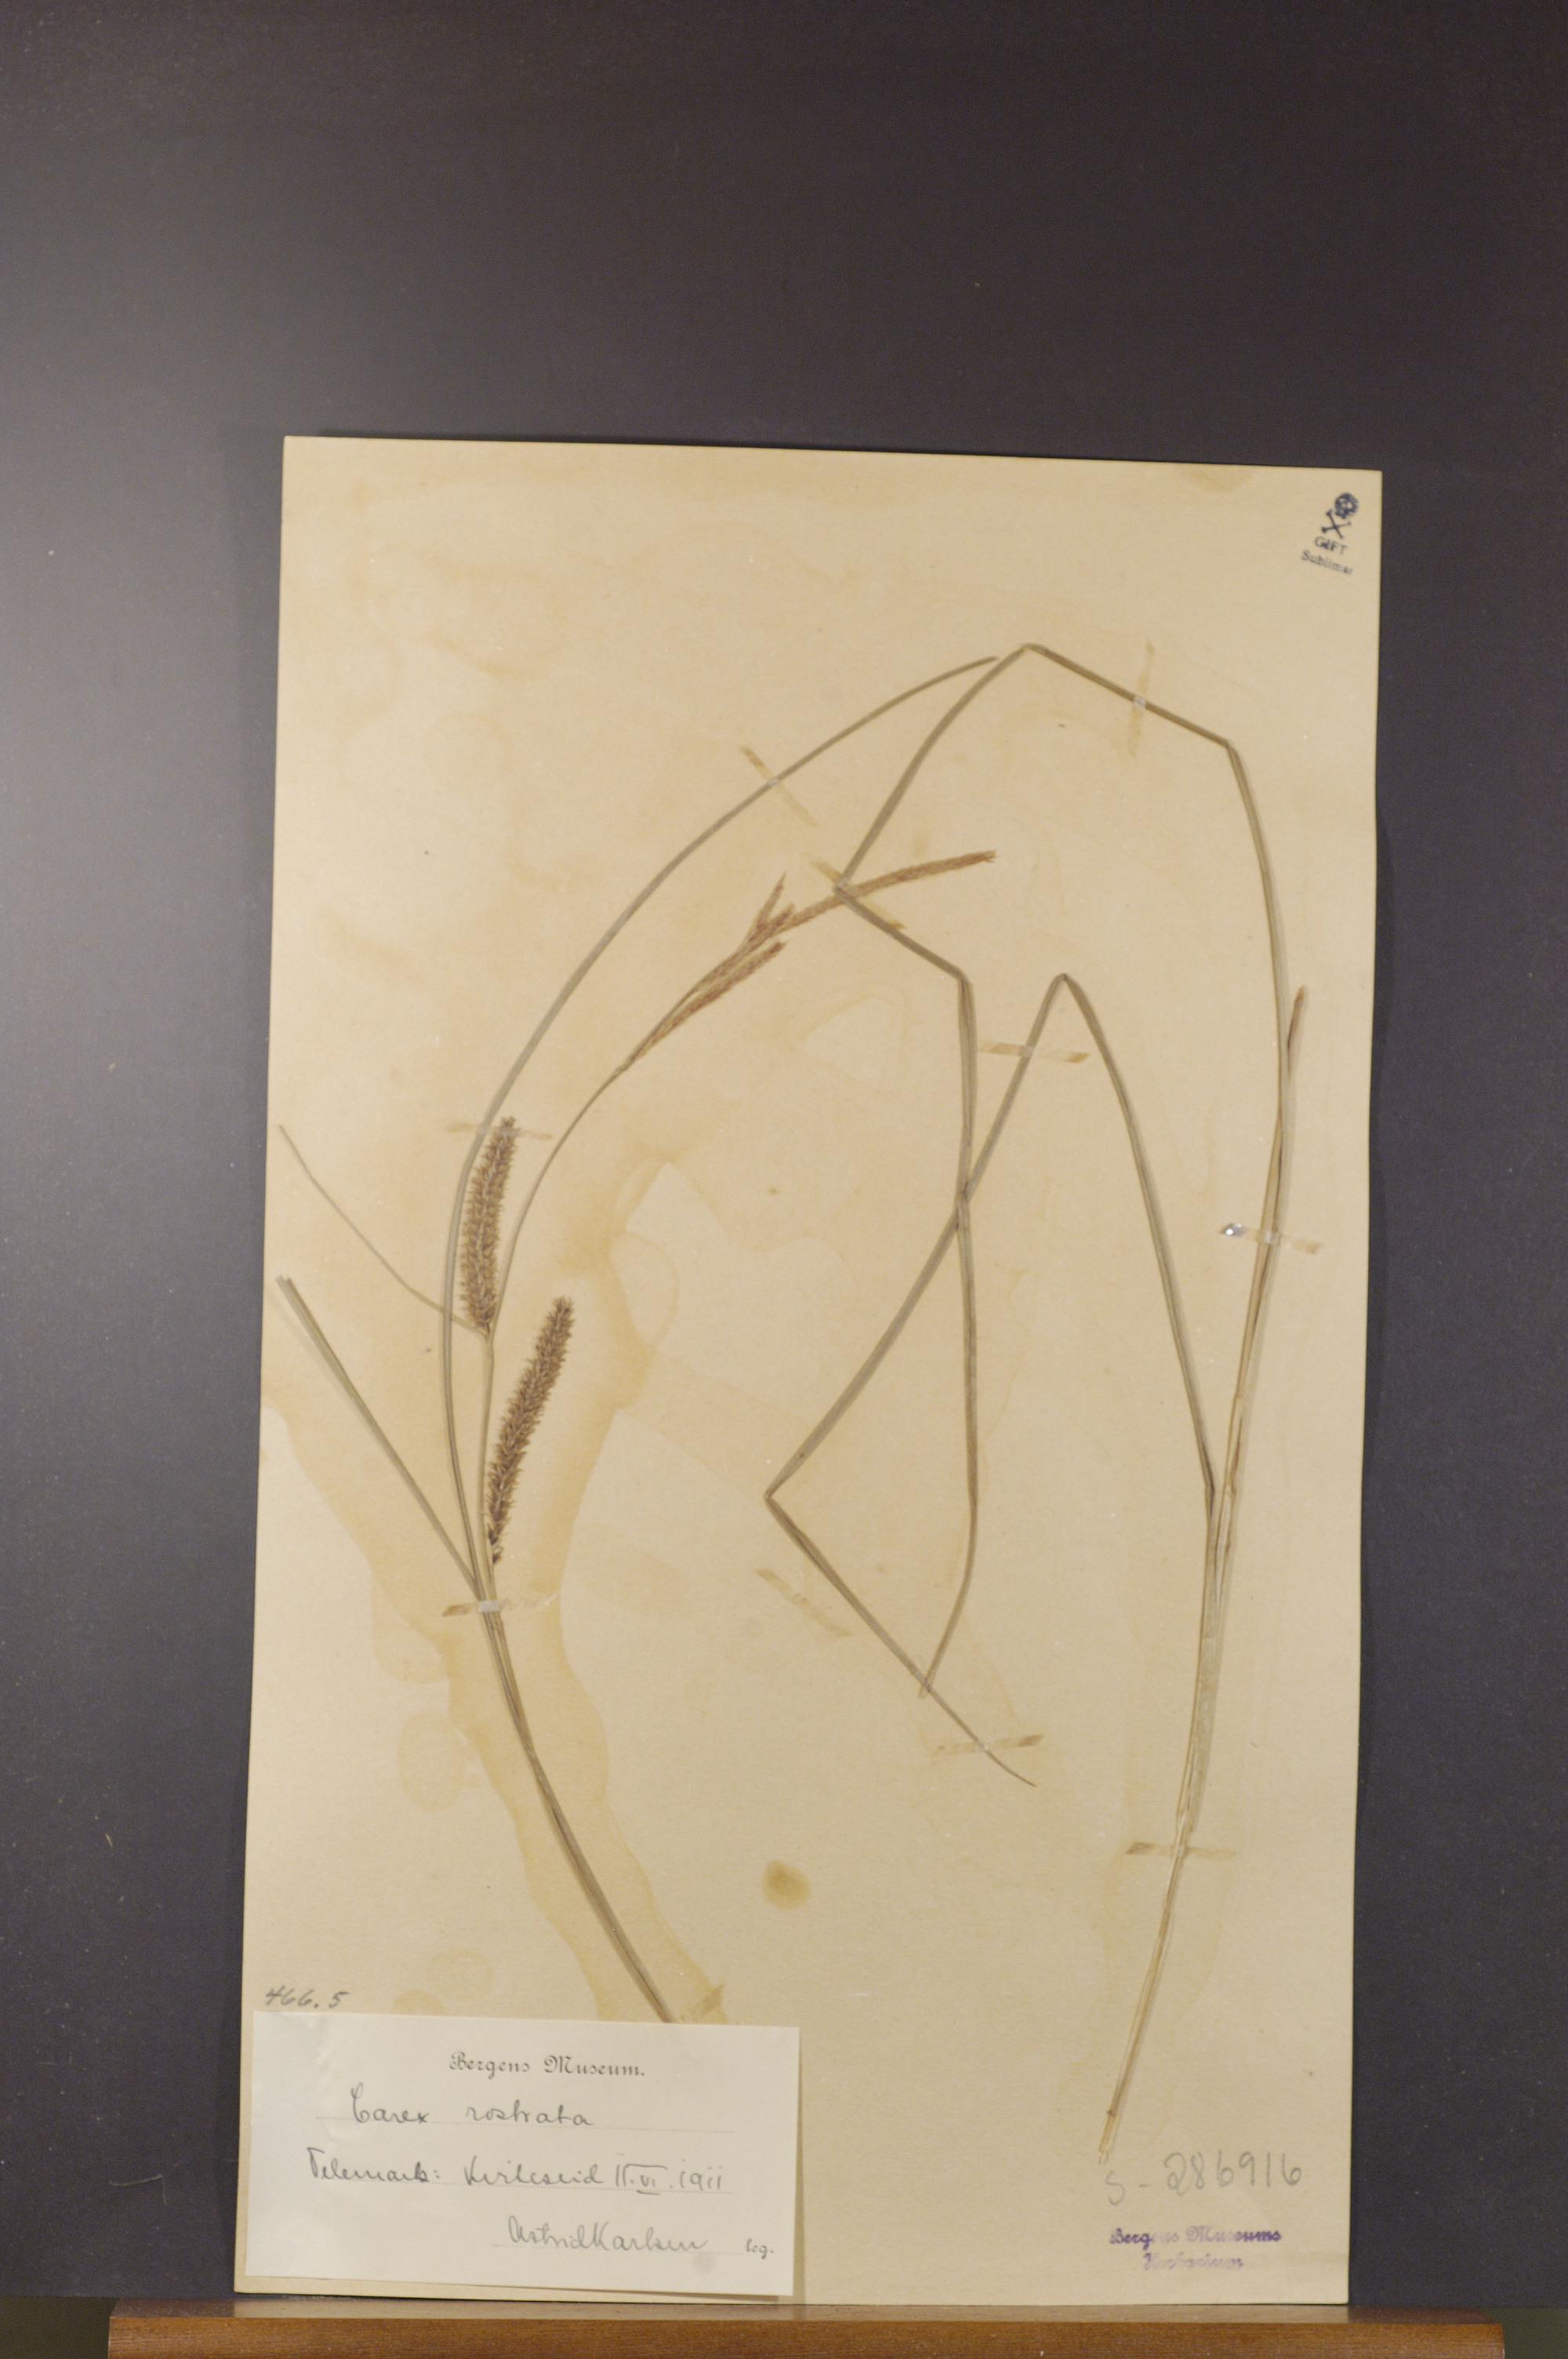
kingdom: Plantae
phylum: Tracheophyta
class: Liliopsida
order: Poales
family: Cyperaceae
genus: Carex
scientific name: Carex rostrata
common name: Bottle sedge
